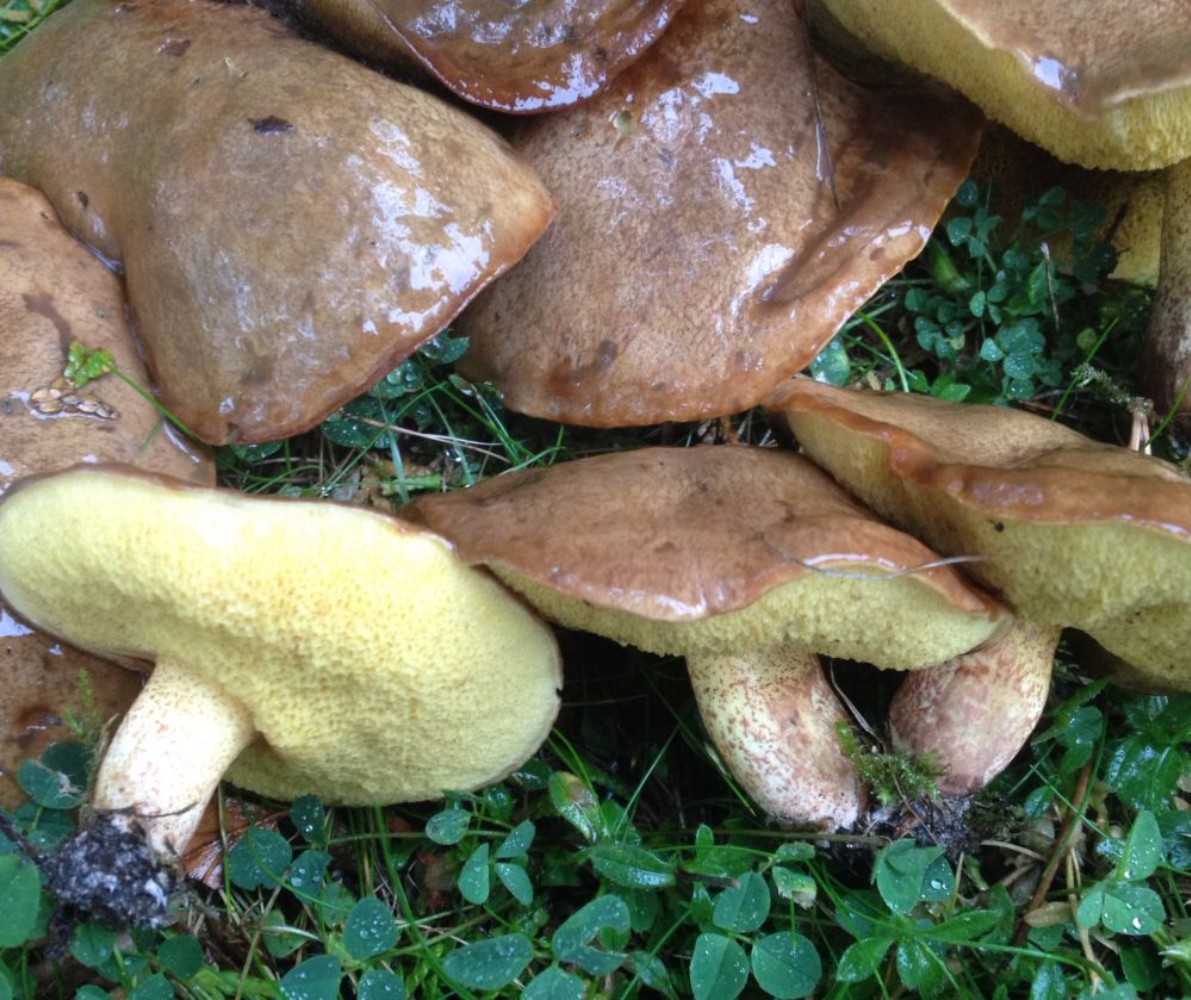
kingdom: Fungi
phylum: Basidiomycota
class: Agaricomycetes
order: Boletales
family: Suillaceae
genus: Suillus
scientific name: Suillus collinitus
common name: rosafodet slimrørhat
